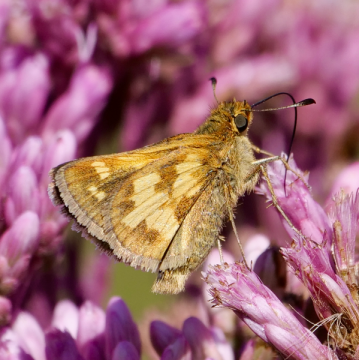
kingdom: Animalia
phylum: Arthropoda
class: Insecta
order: Lepidoptera
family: Hesperiidae
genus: Polites
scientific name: Polites coras
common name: Peck's Skipper
